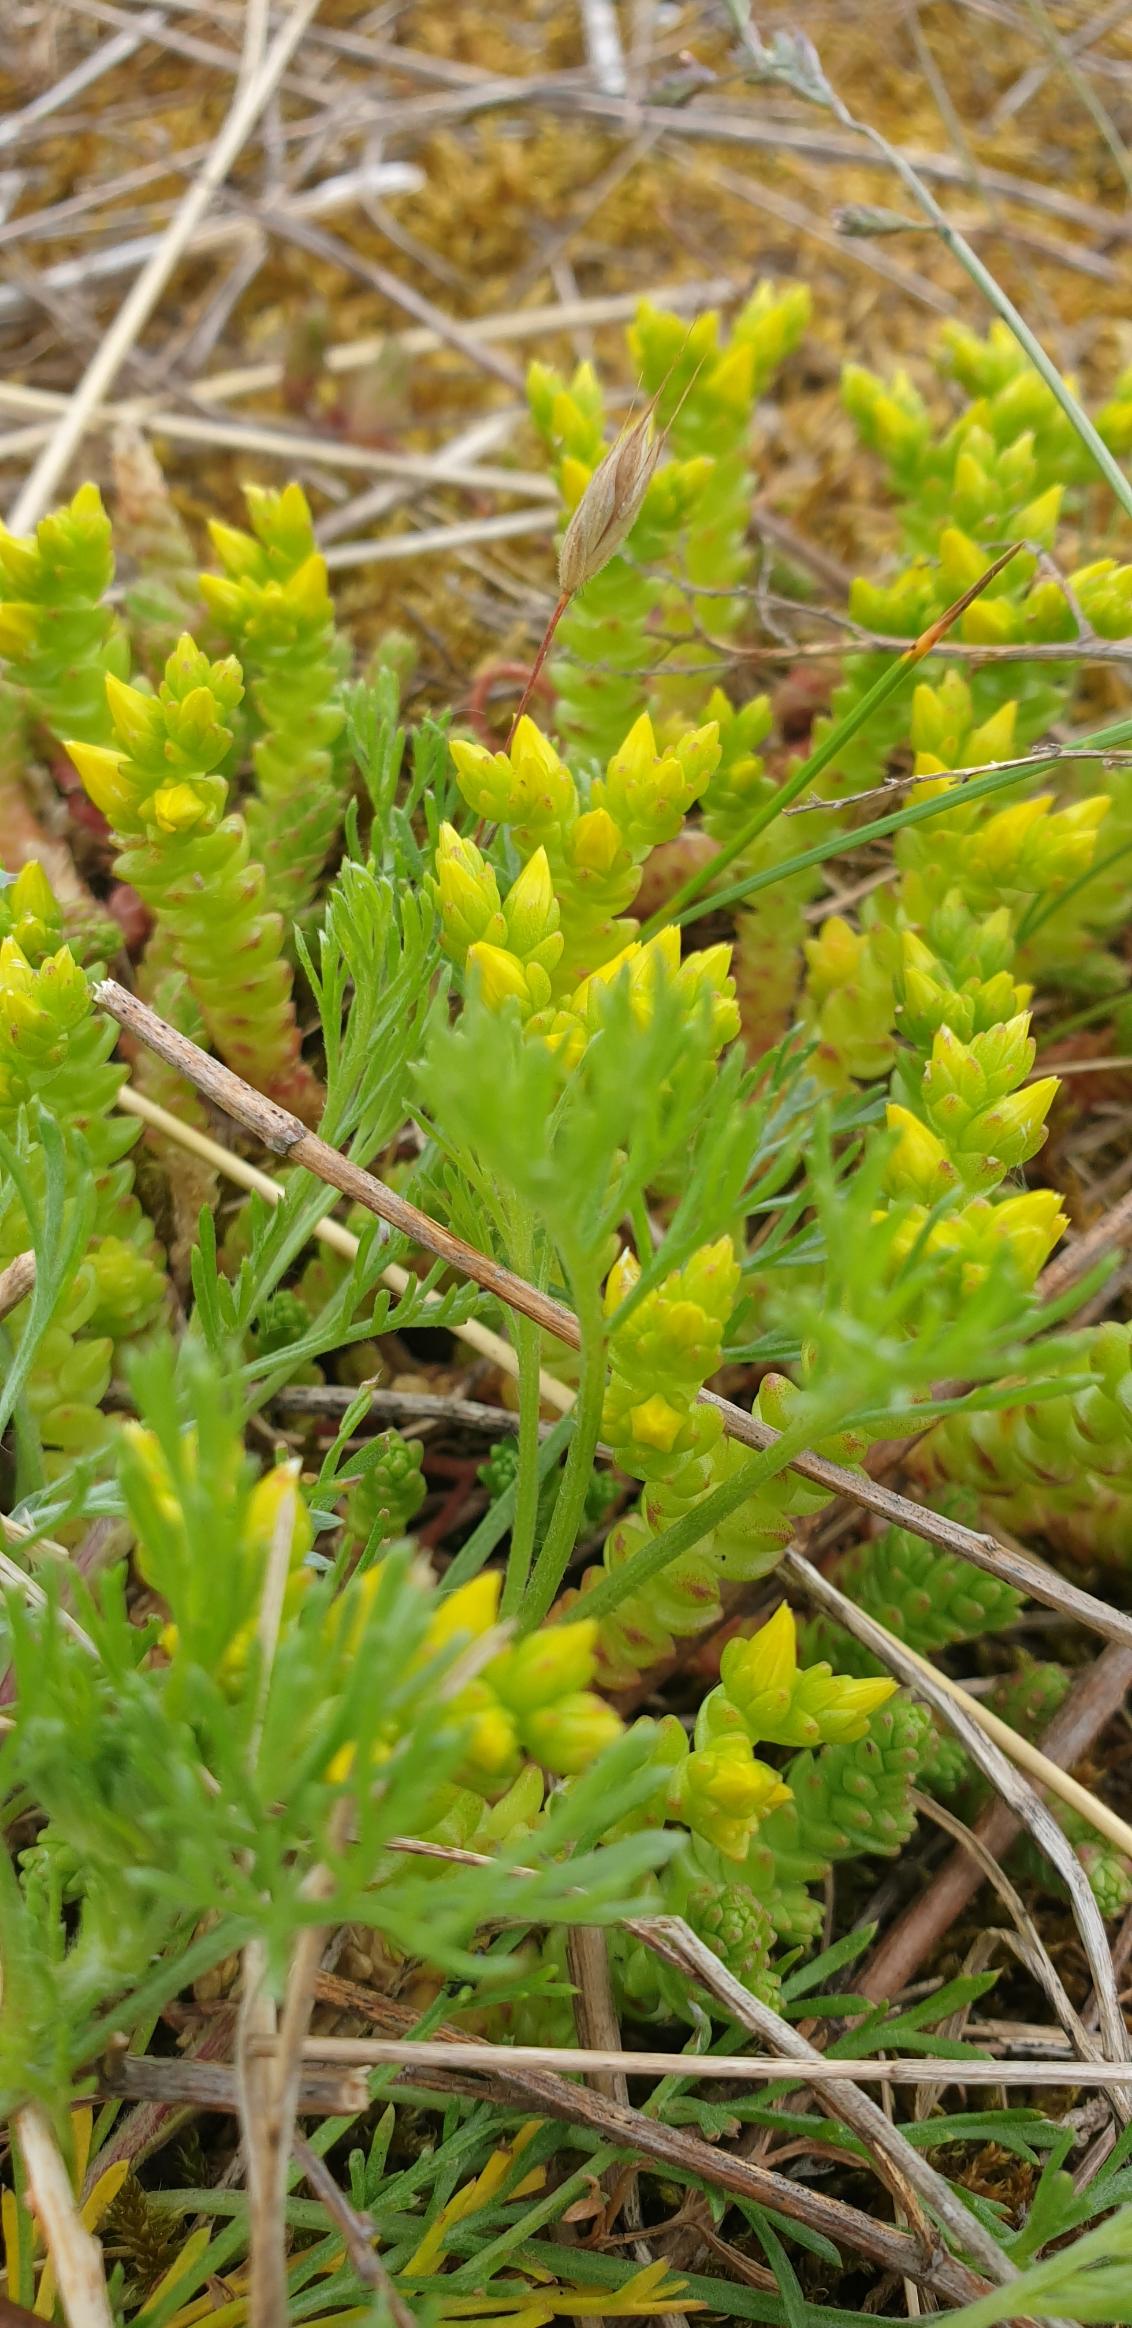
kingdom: Plantae
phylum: Tracheophyta
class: Magnoliopsida
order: Saxifragales
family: Crassulaceae
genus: Sedum
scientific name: Sedum acre
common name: Bidende stenurt
